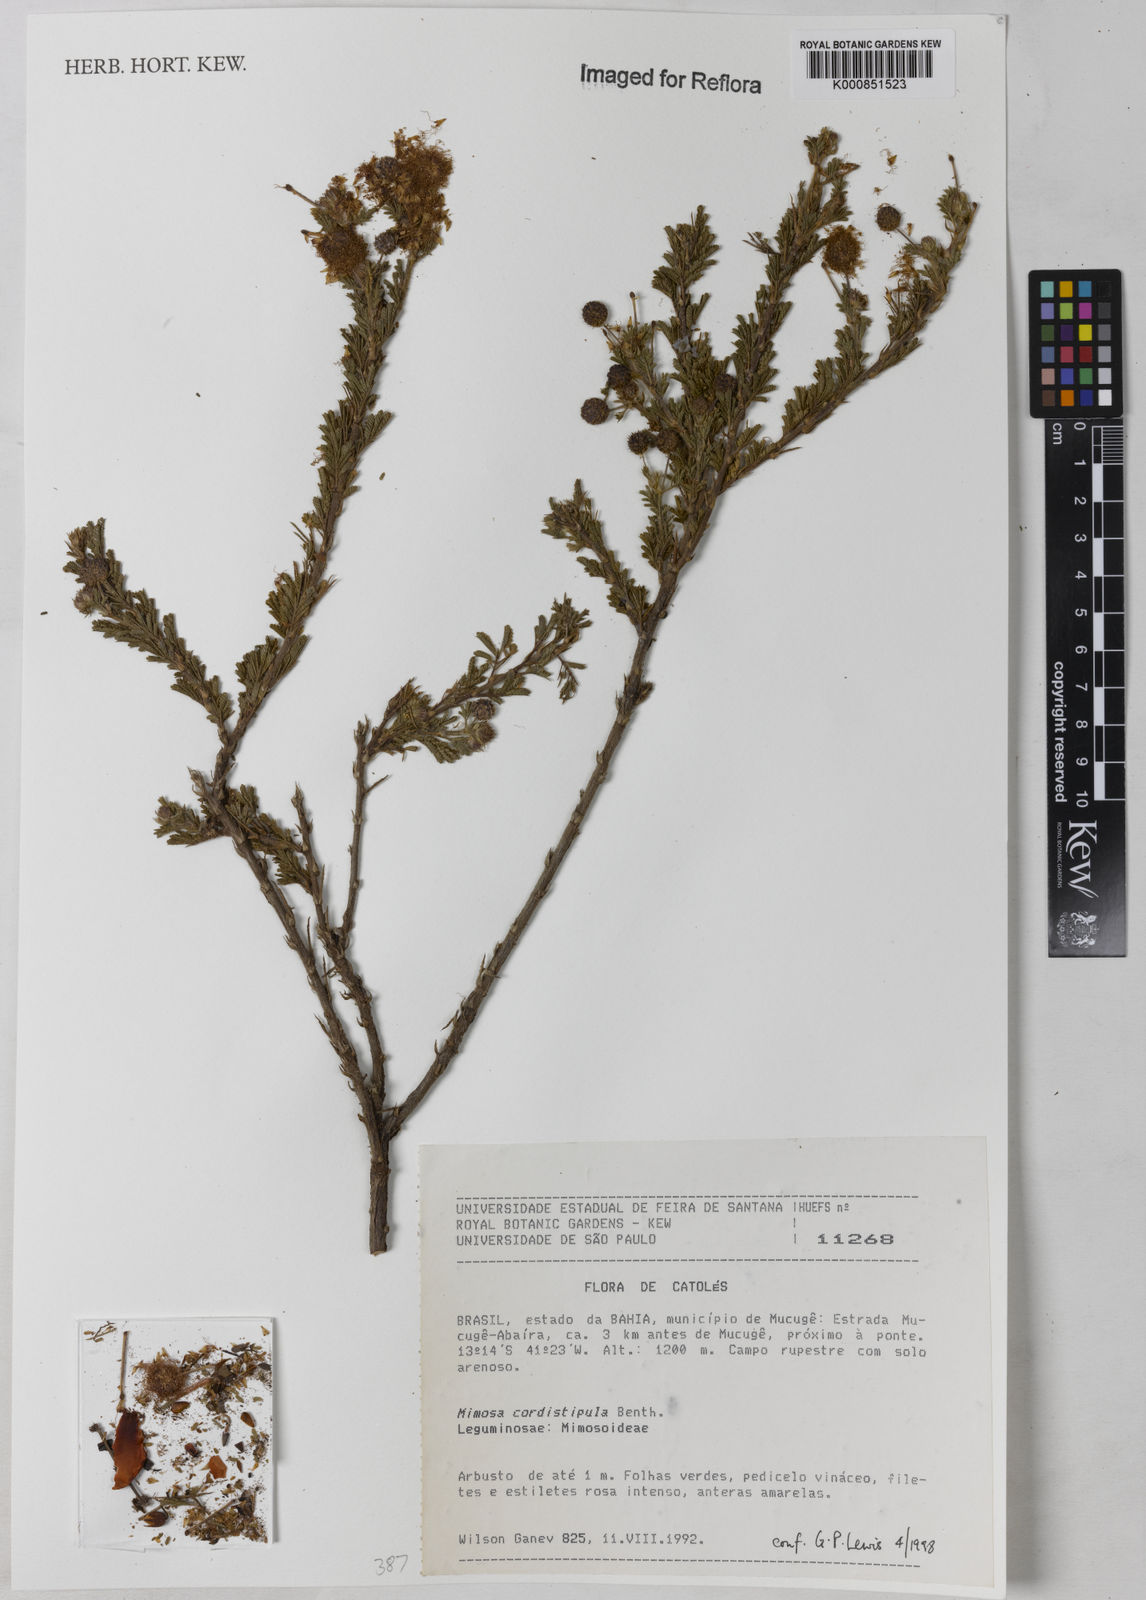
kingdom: Plantae
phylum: Tracheophyta
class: Magnoliopsida
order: Fabales
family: Fabaceae
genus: Mimosa
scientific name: Mimosa cordistipula
